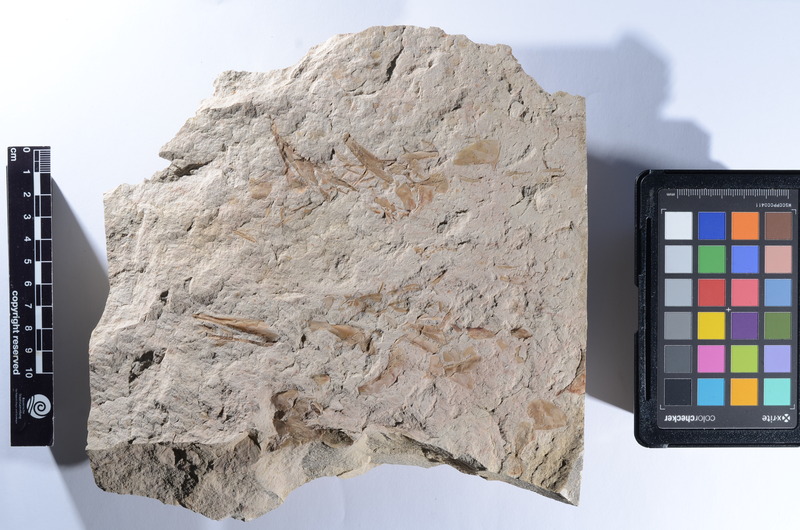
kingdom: Animalia
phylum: Chordata
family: Aspidorhynchidae
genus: Aspidorhynchus
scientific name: Aspidorhynchus
